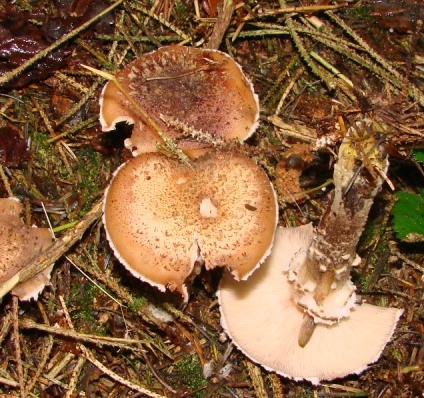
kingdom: Fungi
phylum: Basidiomycota
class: Agaricomycetes
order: Agaricales
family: Physalacriaceae
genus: Armillaria
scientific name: Armillaria ostoyae
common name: mørk honningsvamp
